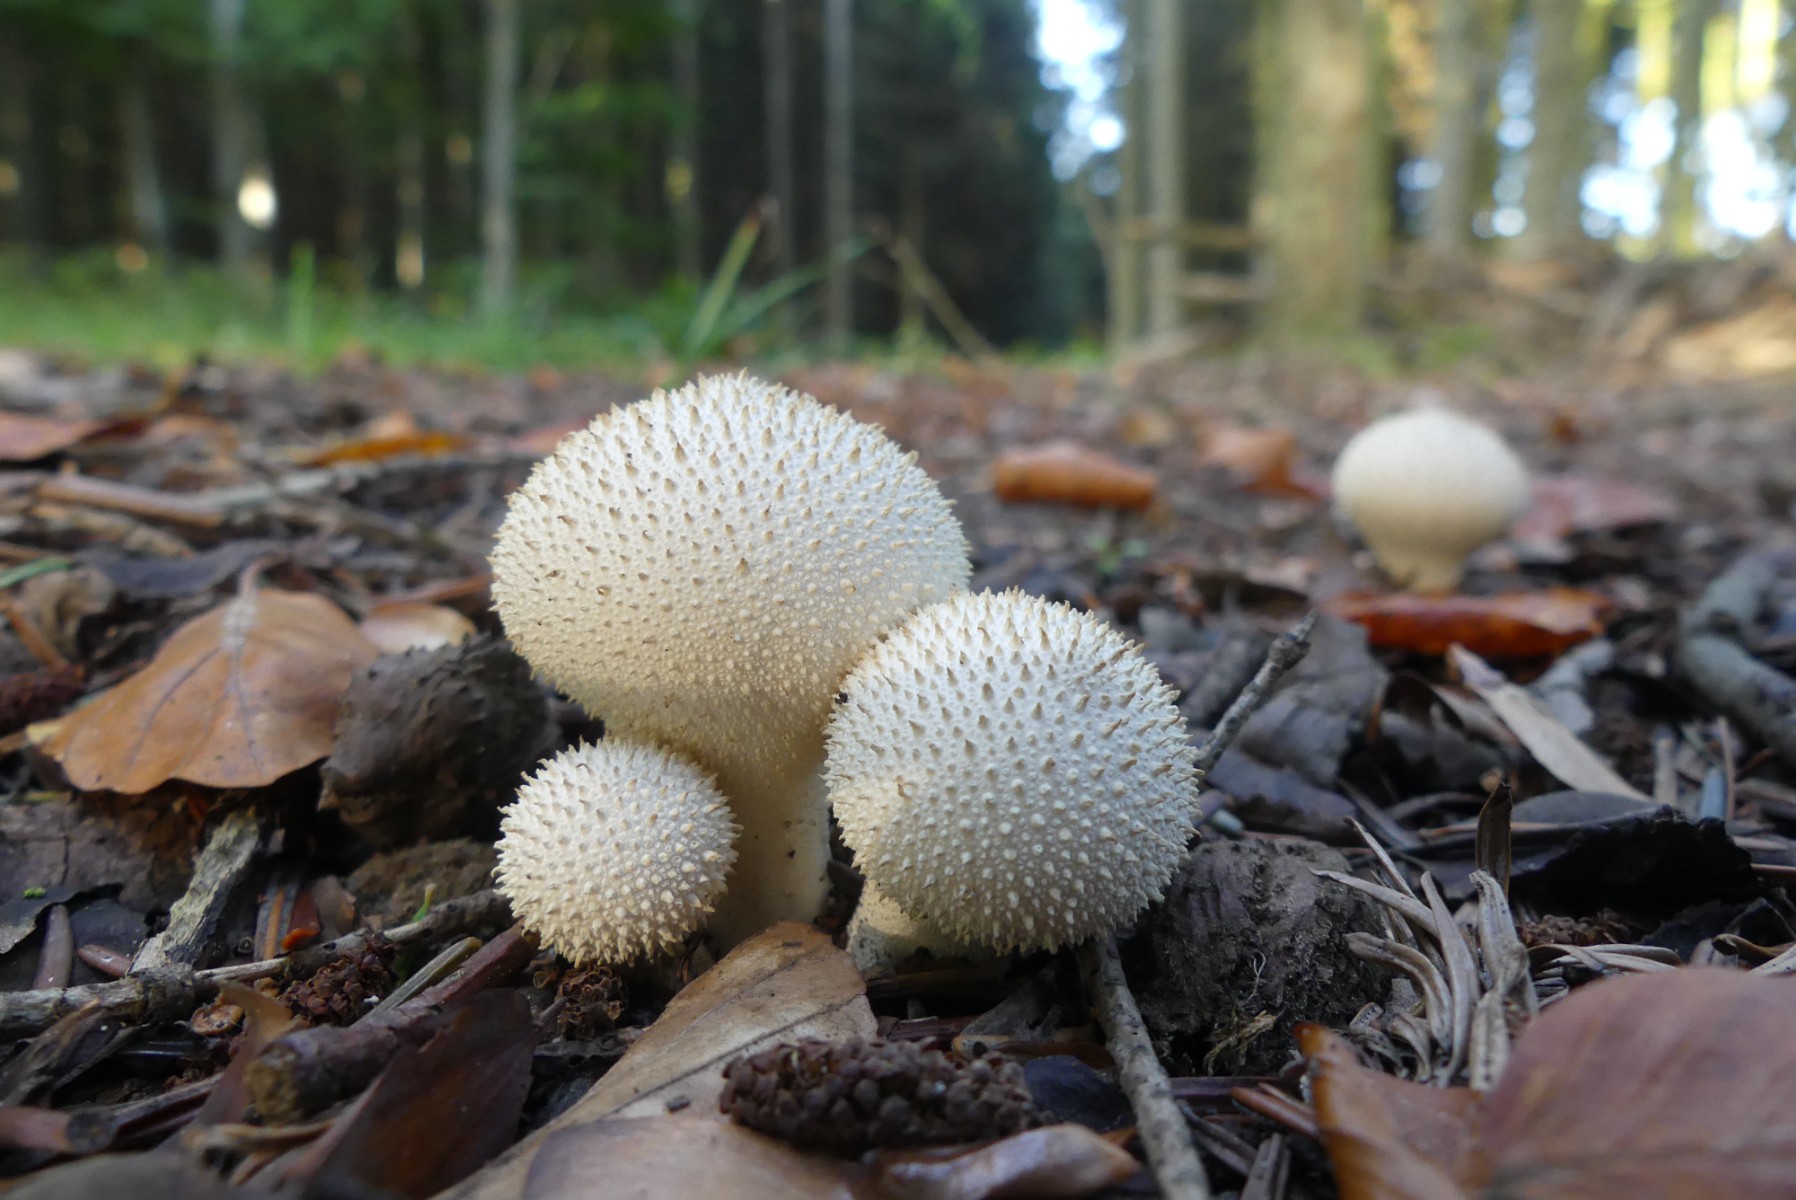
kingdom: Fungi
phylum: Basidiomycota
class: Agaricomycetes
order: Agaricales
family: Lycoperdaceae
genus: Lycoperdon
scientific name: Lycoperdon perlatum
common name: krystal-støvbold
